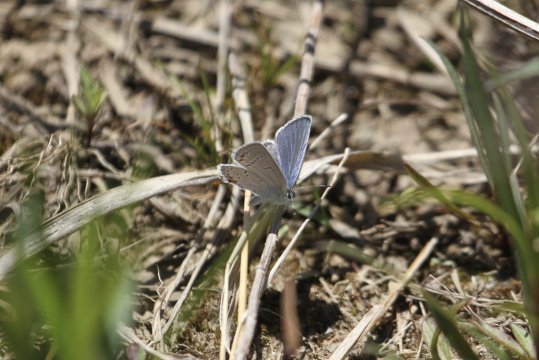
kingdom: Animalia
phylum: Arthropoda
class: Insecta
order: Lepidoptera
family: Lycaenidae
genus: Elkalyce
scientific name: Elkalyce comyntas
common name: Eastern Tailed-Blue
